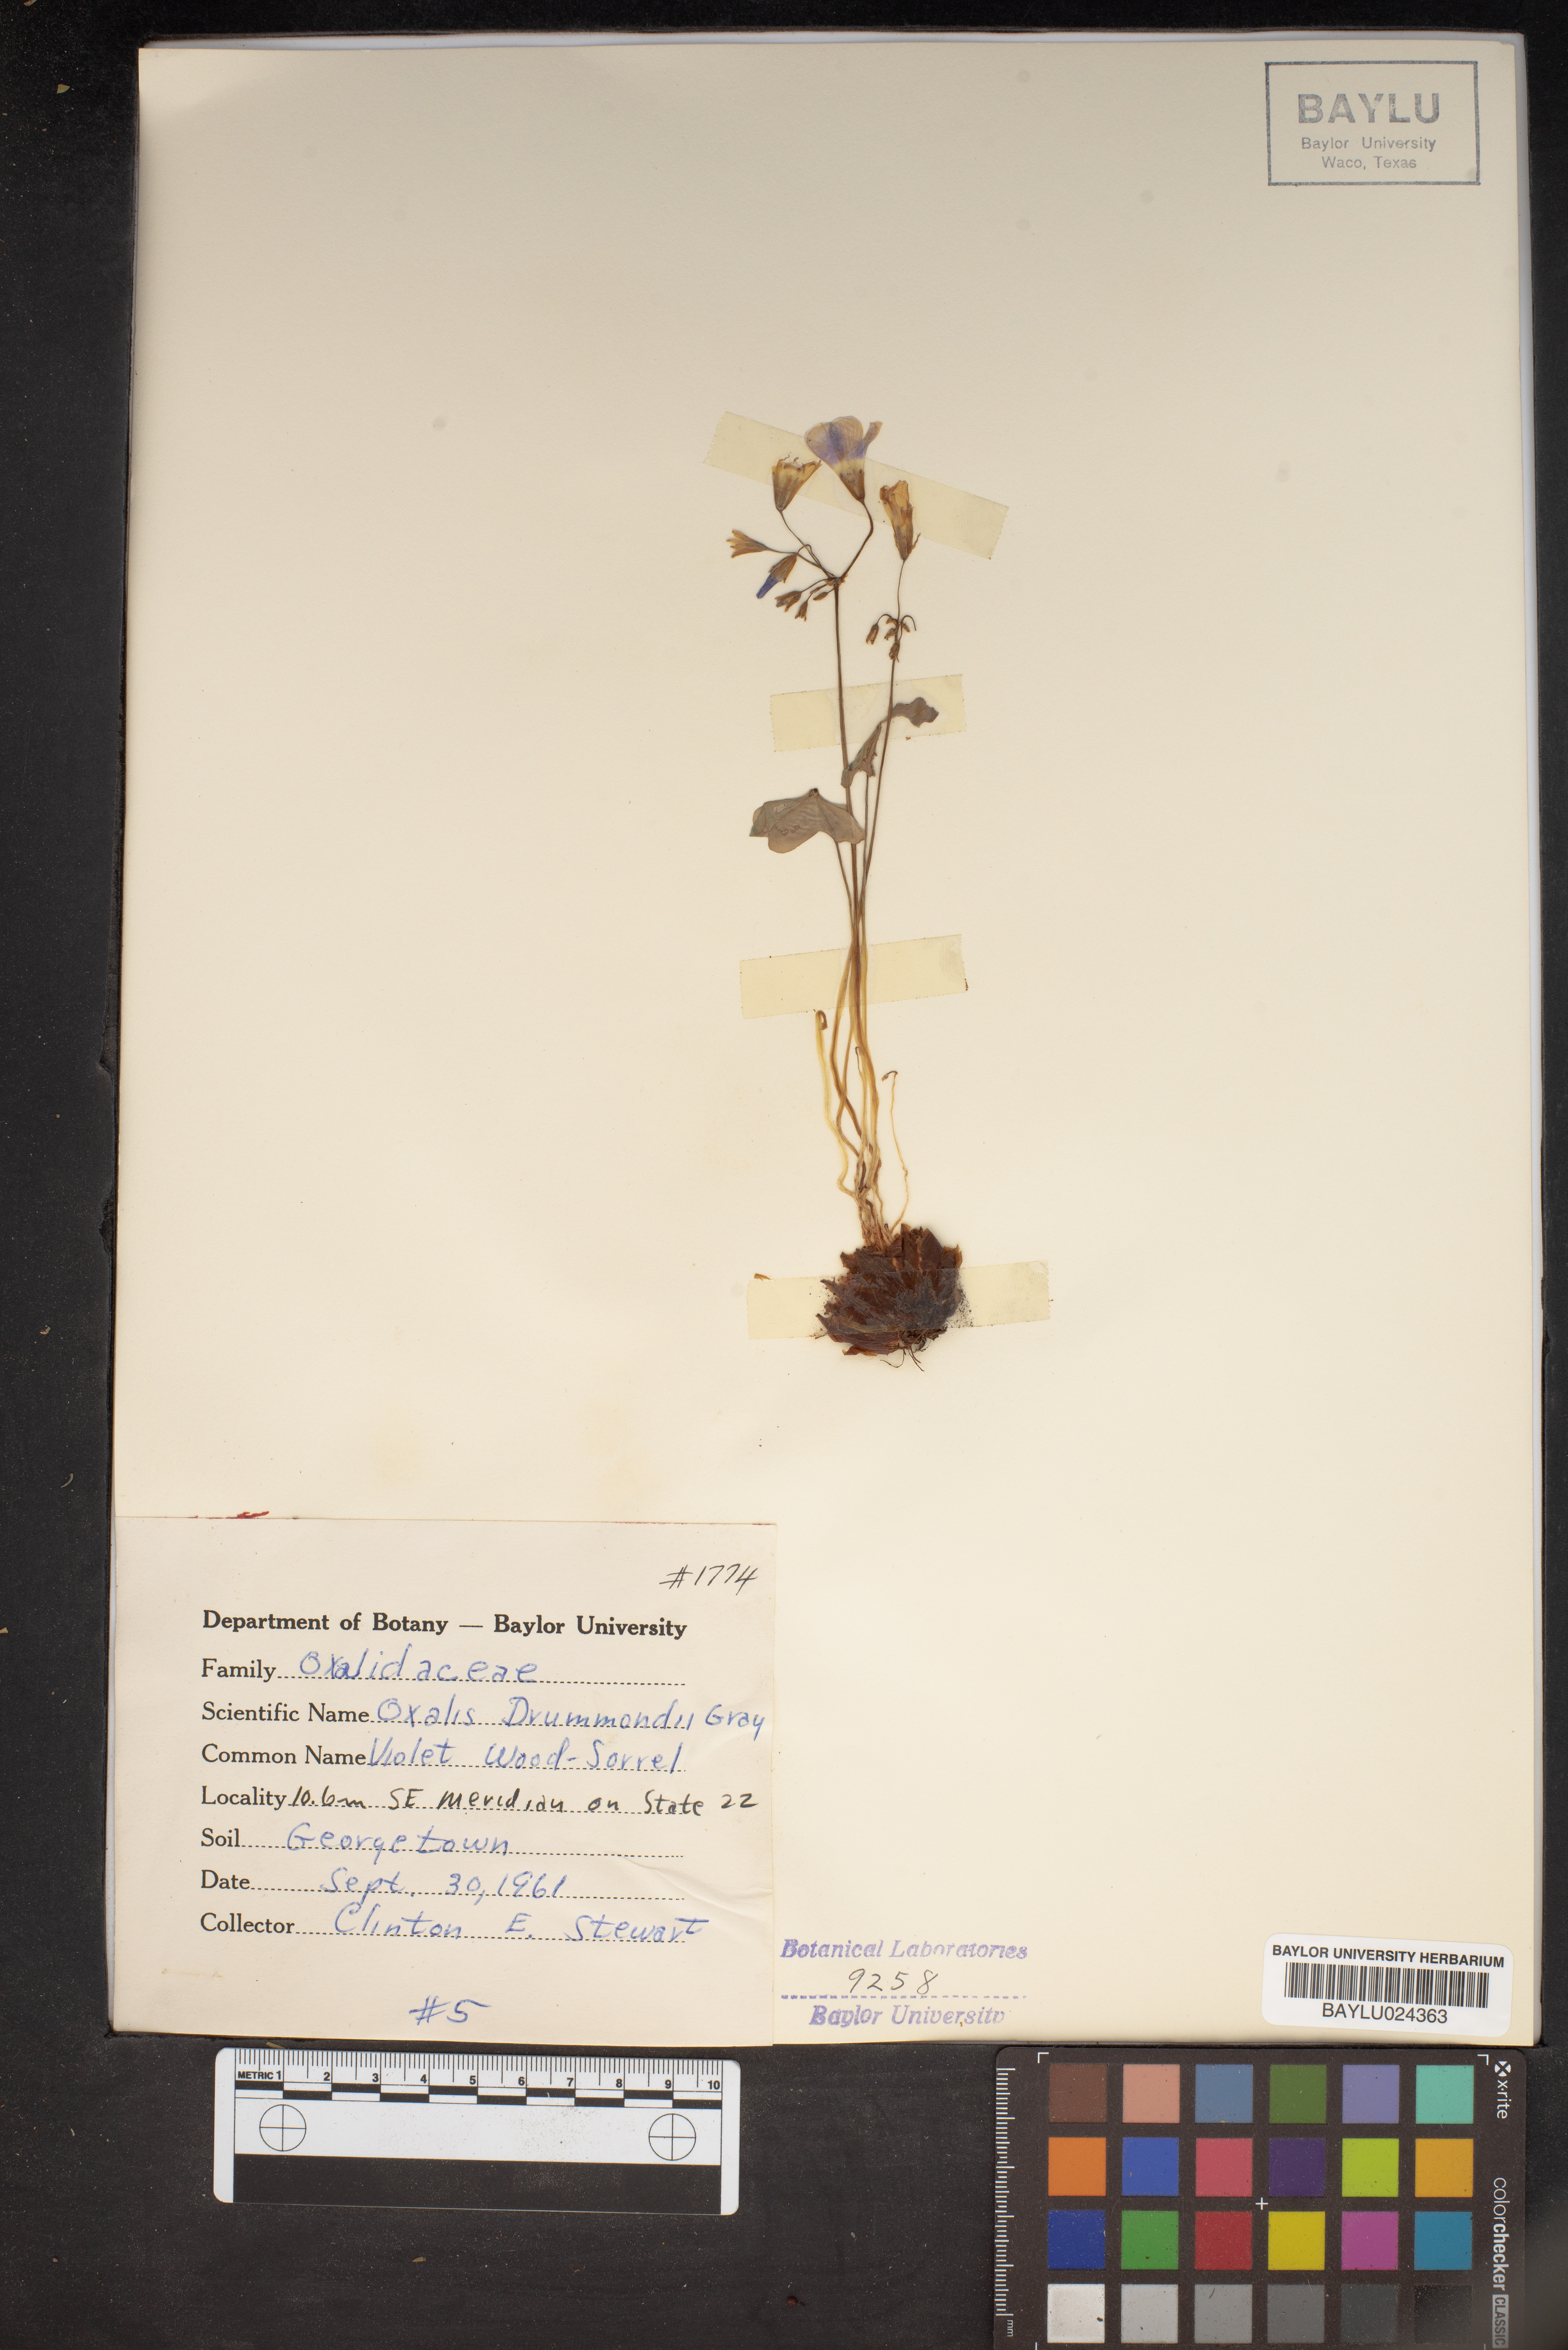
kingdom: Plantae
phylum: Tracheophyta
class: Magnoliopsida
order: Oxalidales
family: Oxalidaceae
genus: Oxalis
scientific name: Oxalis drummondii
